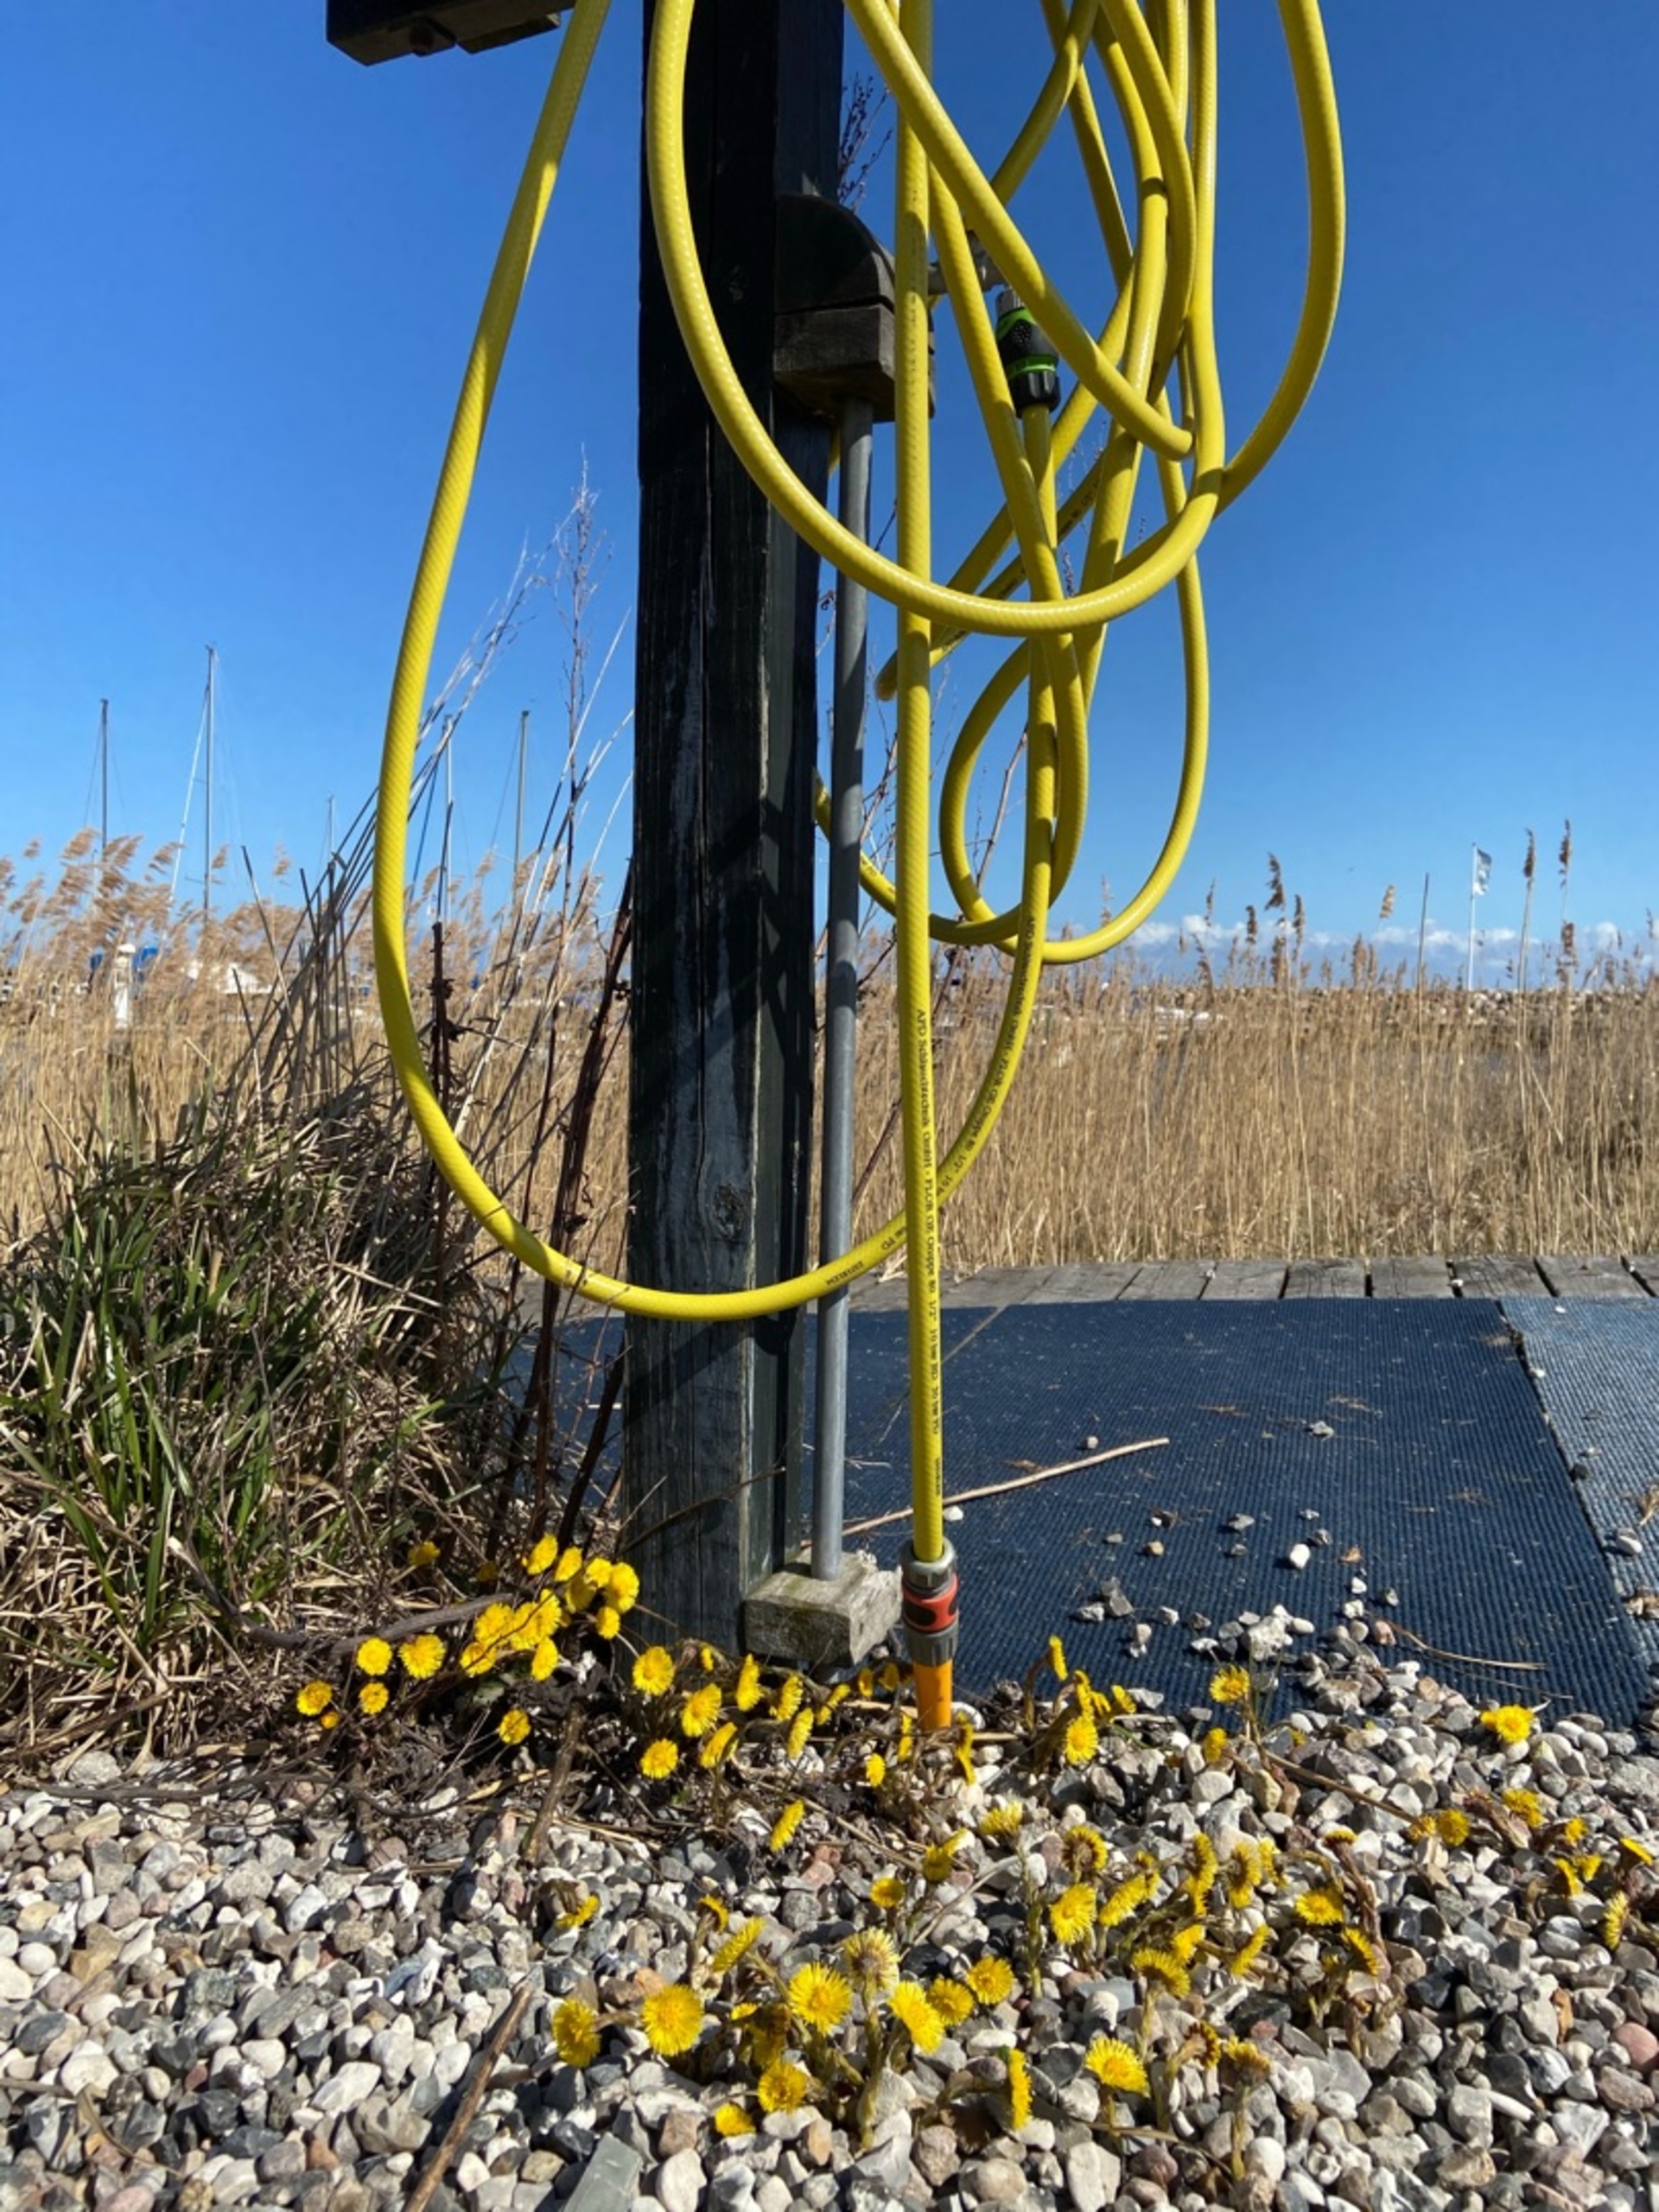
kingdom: Plantae
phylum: Tracheophyta
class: Magnoliopsida
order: Asterales
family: Asteraceae
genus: Tussilago
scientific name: Tussilago farfara
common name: Følfod
